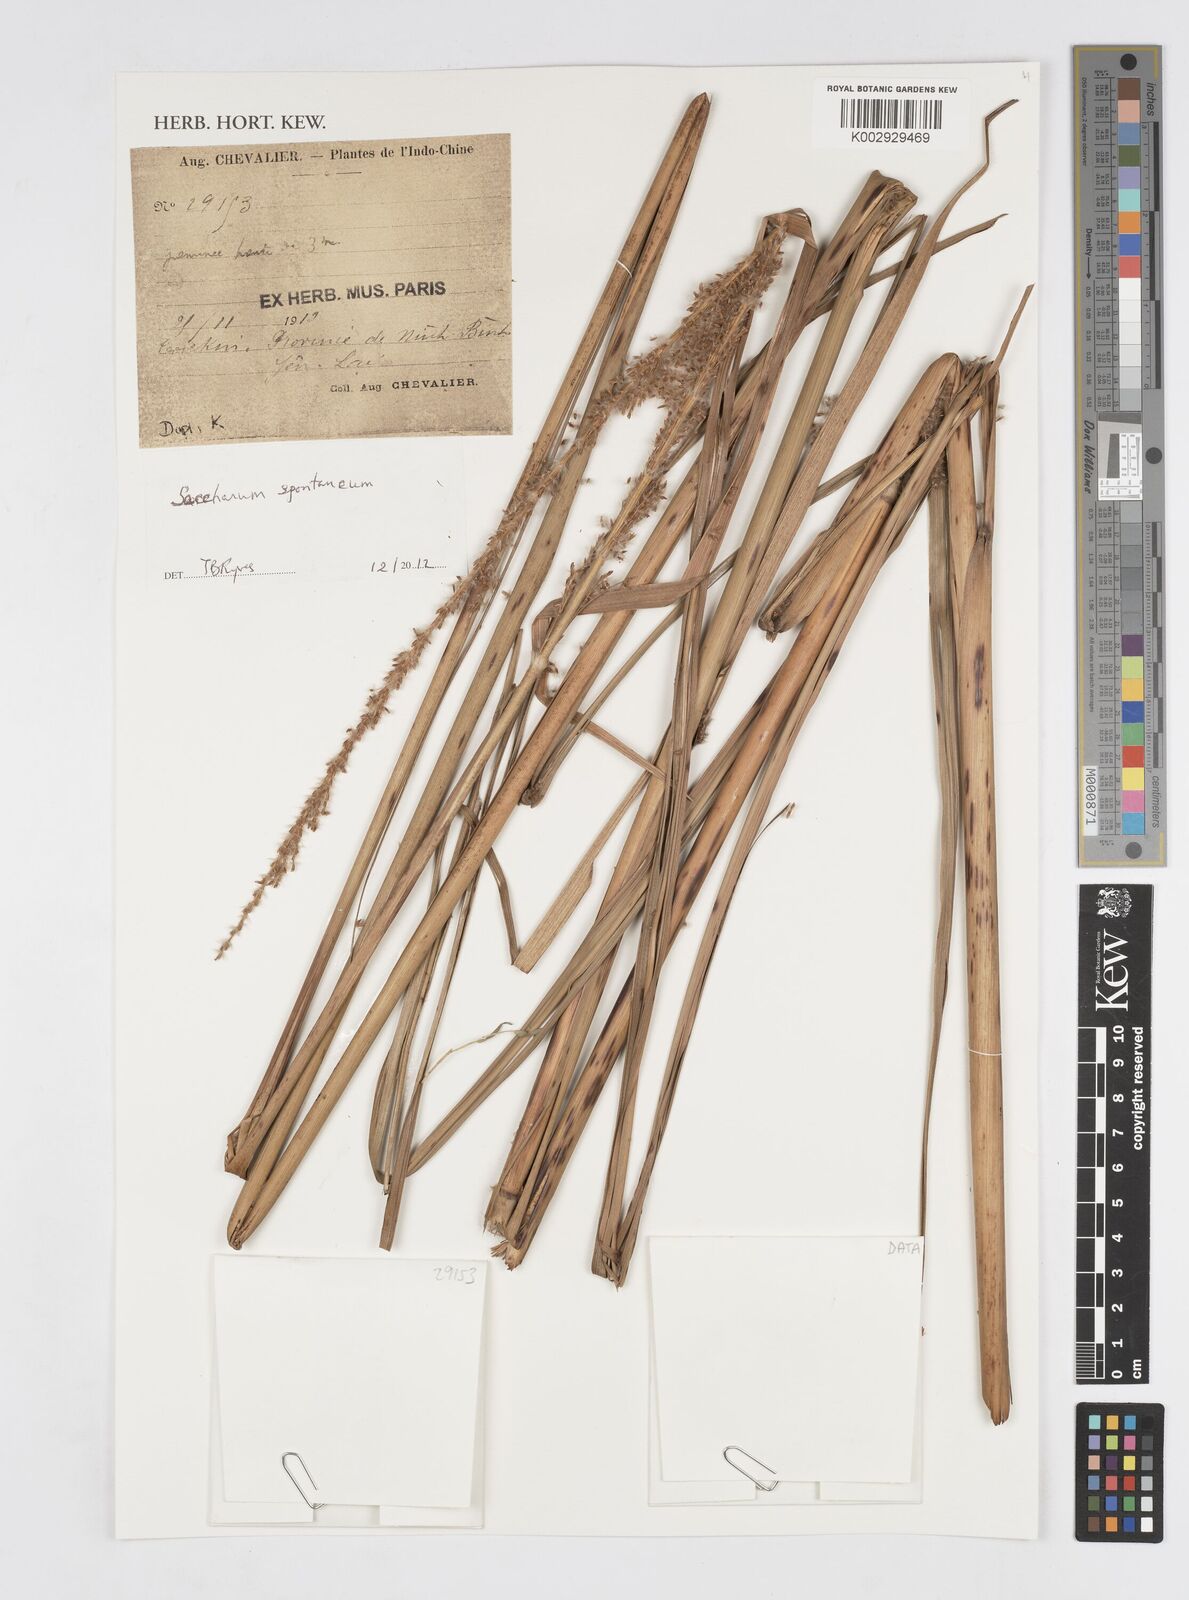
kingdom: Plantae
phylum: Tracheophyta
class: Liliopsida
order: Poales
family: Poaceae
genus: Saccharum
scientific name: Saccharum spontaneum
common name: Wild sugarcane
